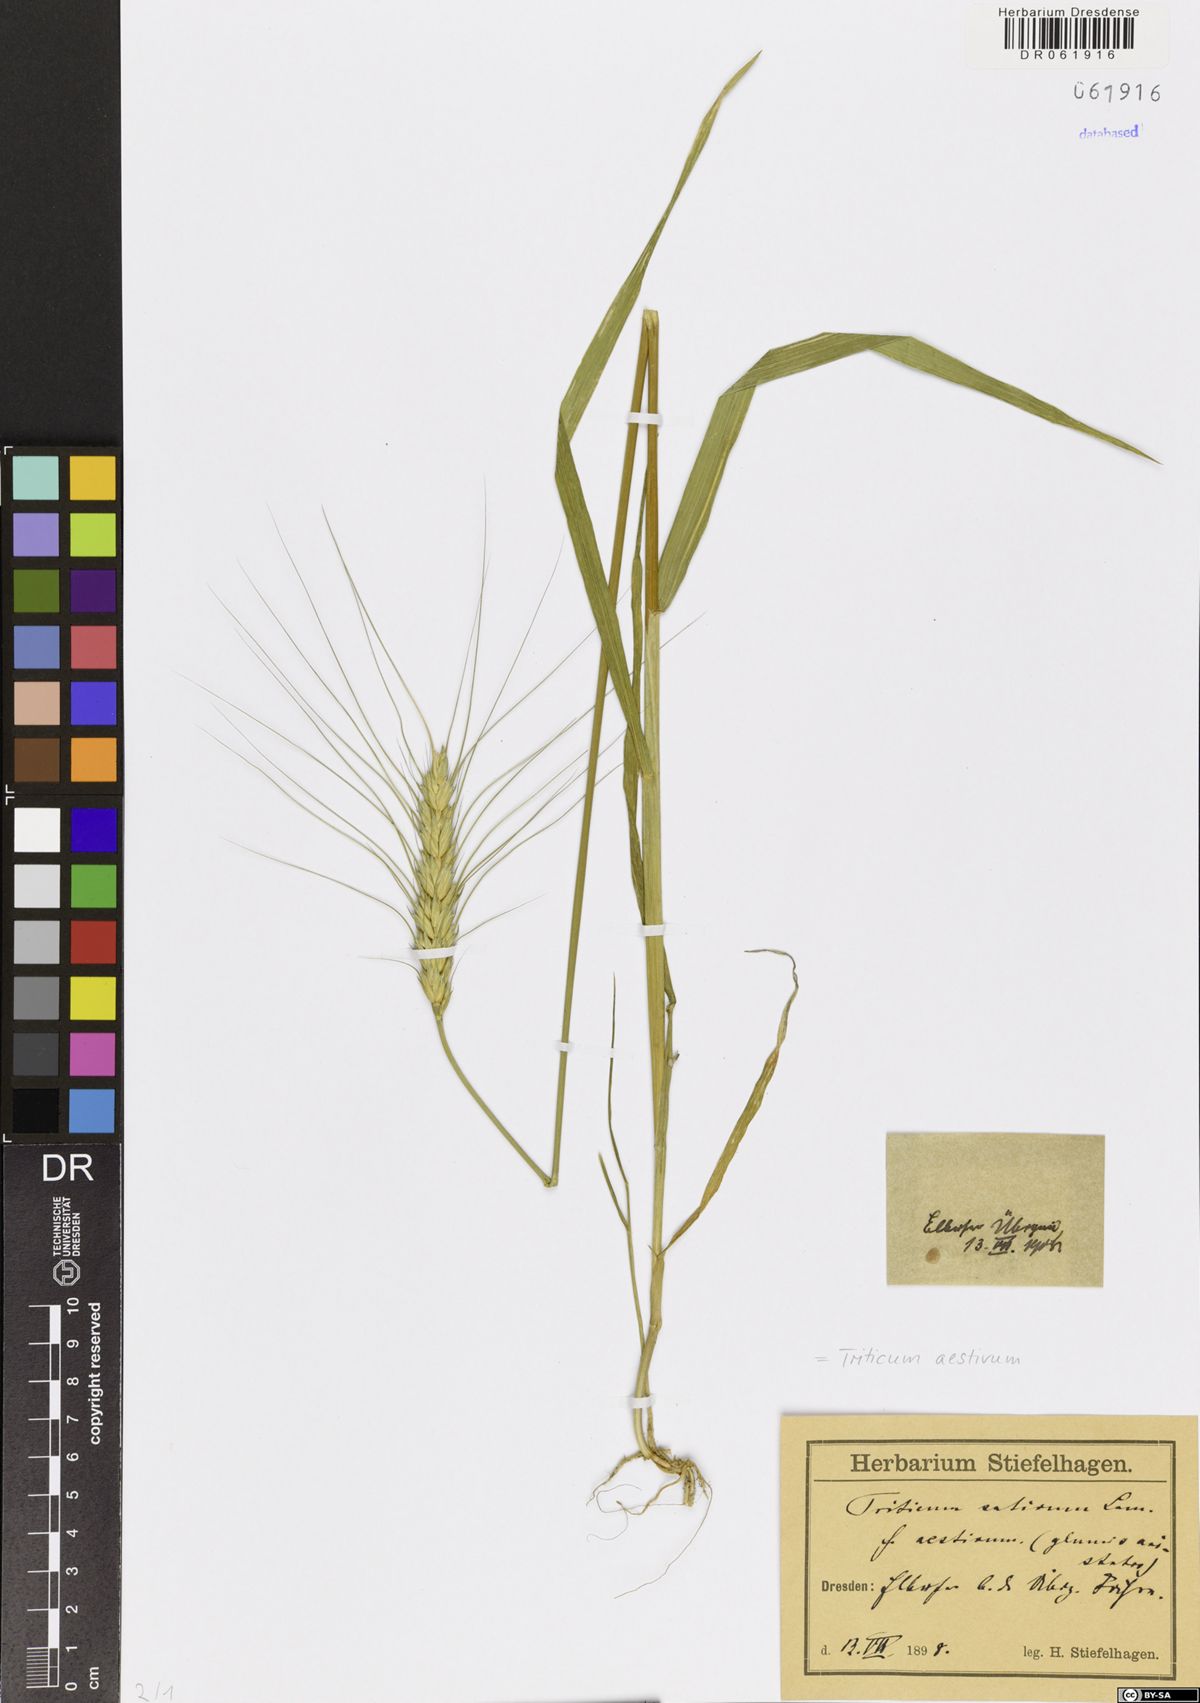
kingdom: Plantae
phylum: Tracheophyta
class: Liliopsida
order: Poales
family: Poaceae
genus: Triticum
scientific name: Triticum aestivum
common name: Common wheat
